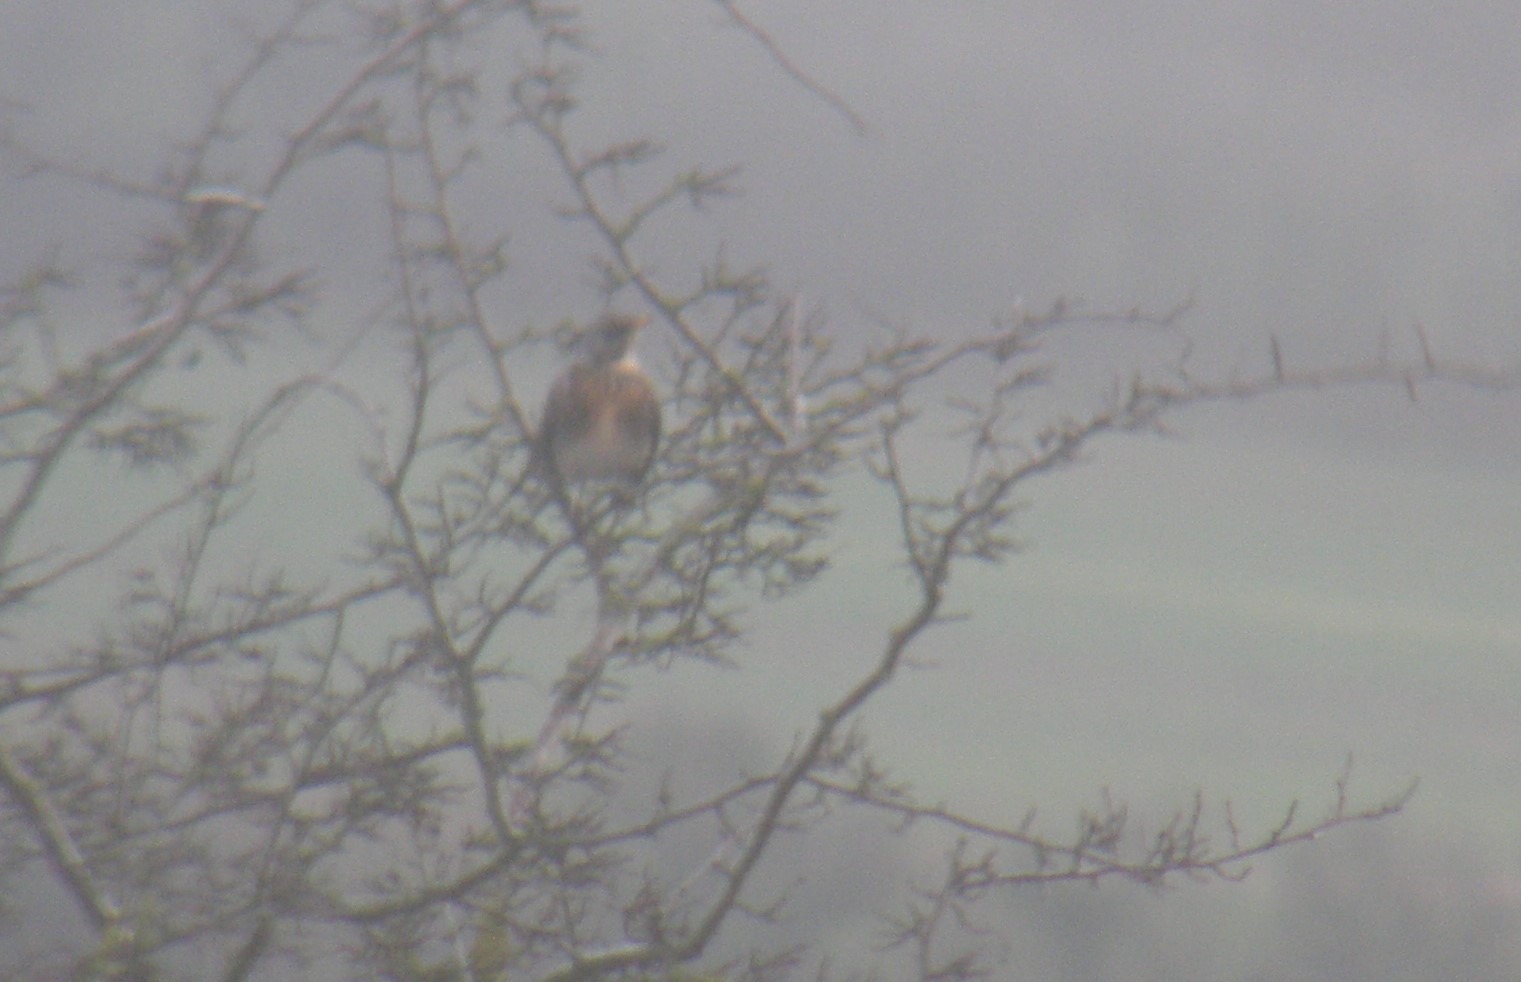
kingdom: Animalia
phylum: Chordata
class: Aves
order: Passeriformes
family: Turdidae
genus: Turdus
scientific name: Turdus pilaris
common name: Sjagger
